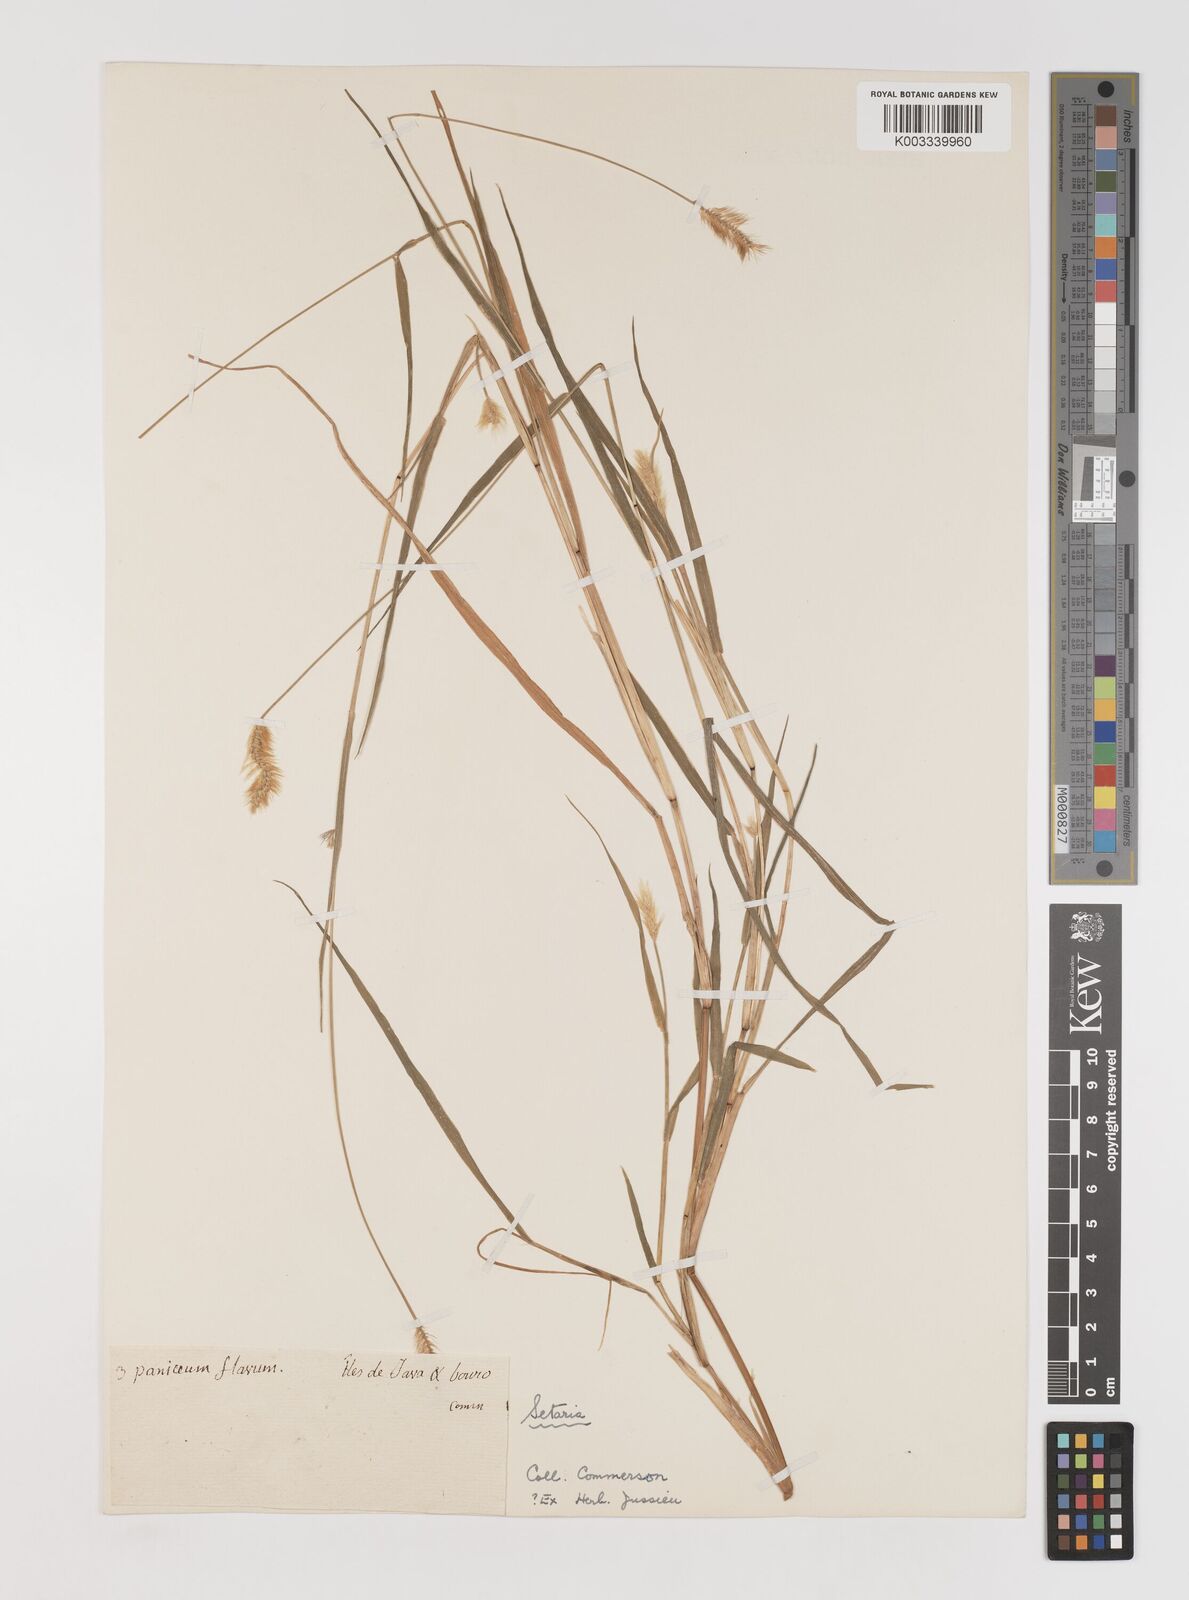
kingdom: Plantae
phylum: Tracheophyta
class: Liliopsida
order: Poales
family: Poaceae
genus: Setaria
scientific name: Setaria parviflora
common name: Knotroot bristle-grass
